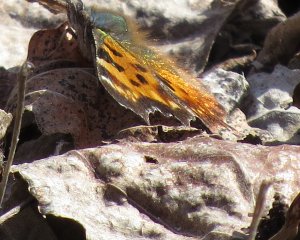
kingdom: Animalia
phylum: Arthropoda
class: Insecta
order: Lepidoptera
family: Nymphalidae
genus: Polygonia
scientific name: Polygonia faunus
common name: Green Comma
